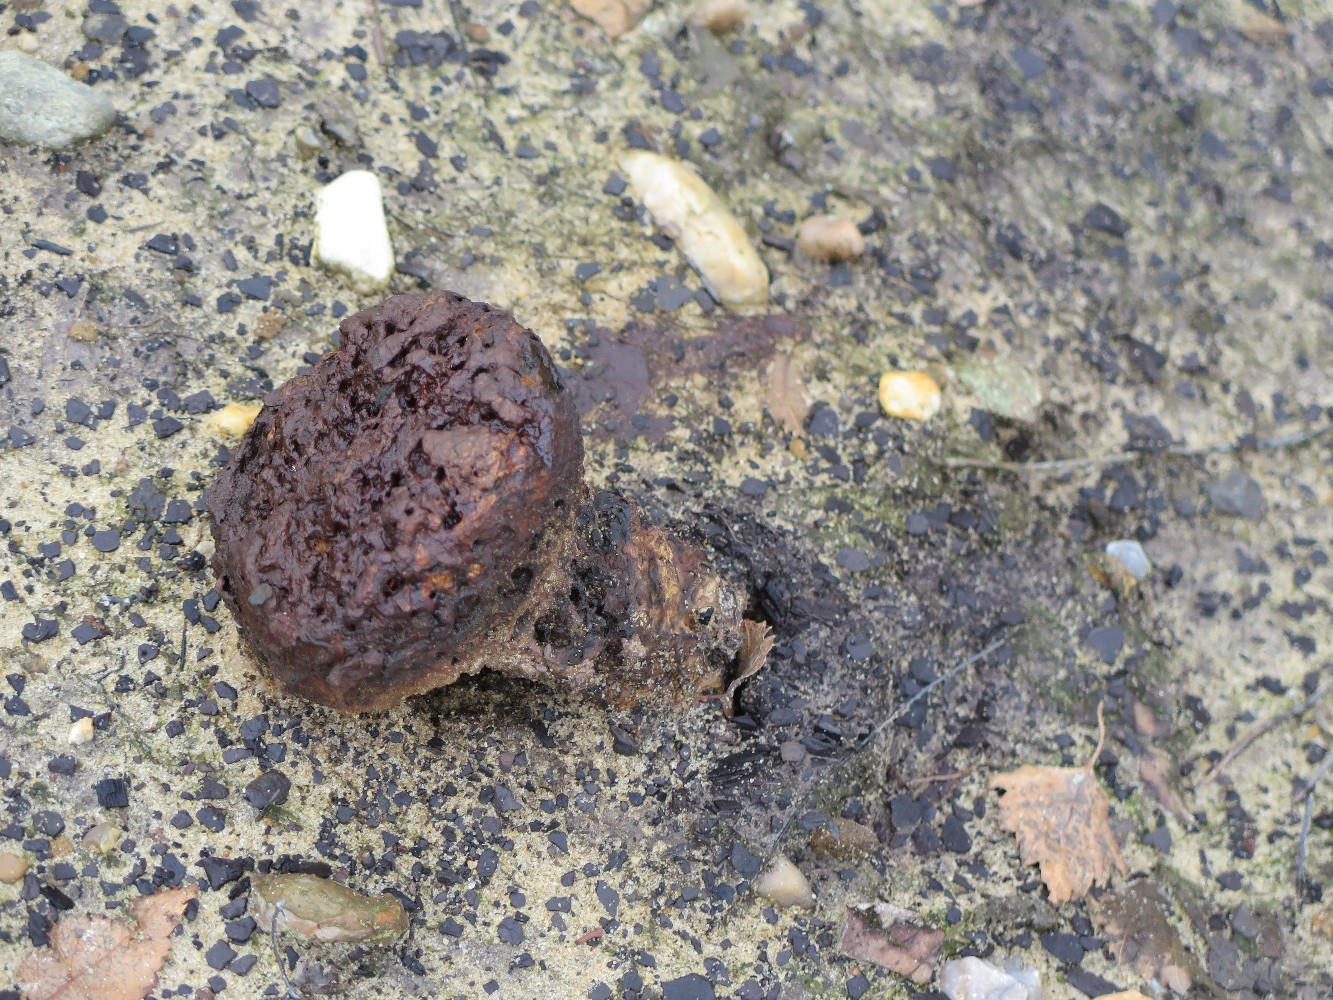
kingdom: Fungi
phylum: Basidiomycota
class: Agaricomycetes
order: Boletales
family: Sclerodermataceae
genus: Pisolithus
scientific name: Pisolithus capsulifer
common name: farvebold
